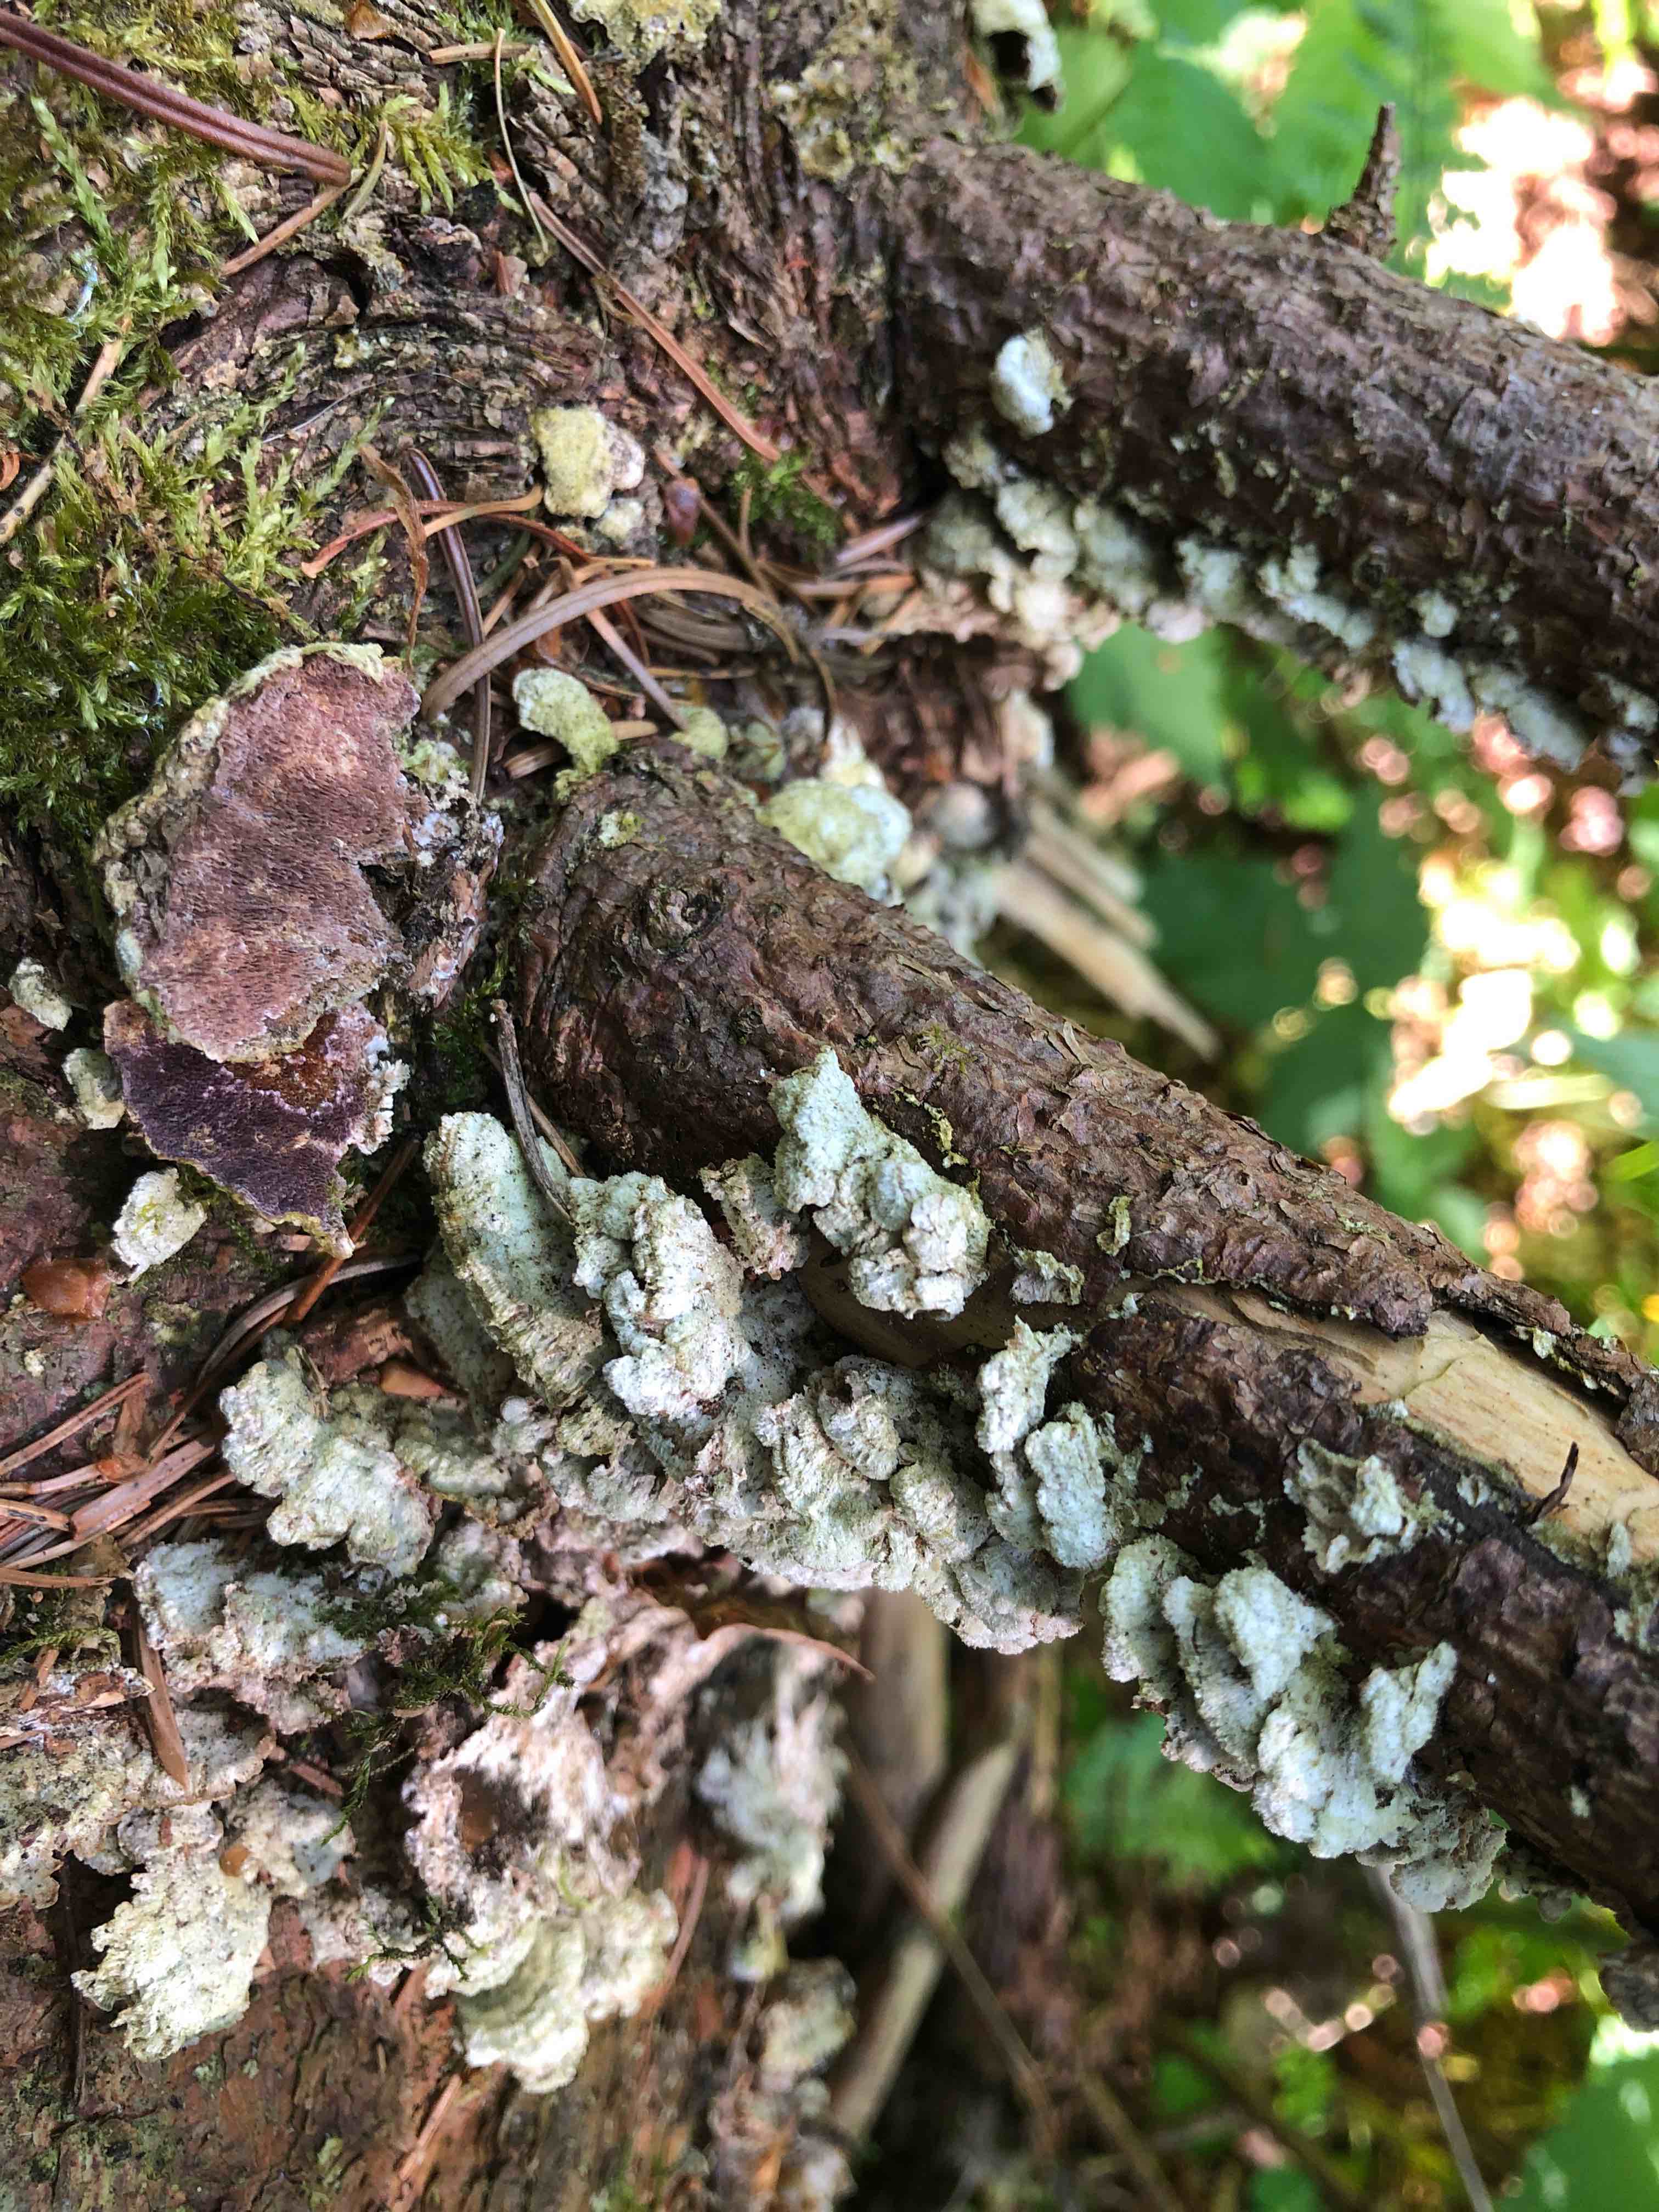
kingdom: Fungi
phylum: Basidiomycota
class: Agaricomycetes
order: Hymenochaetales
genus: Trichaptum
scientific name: Trichaptum abietinum
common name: almindelig violporesvamp
